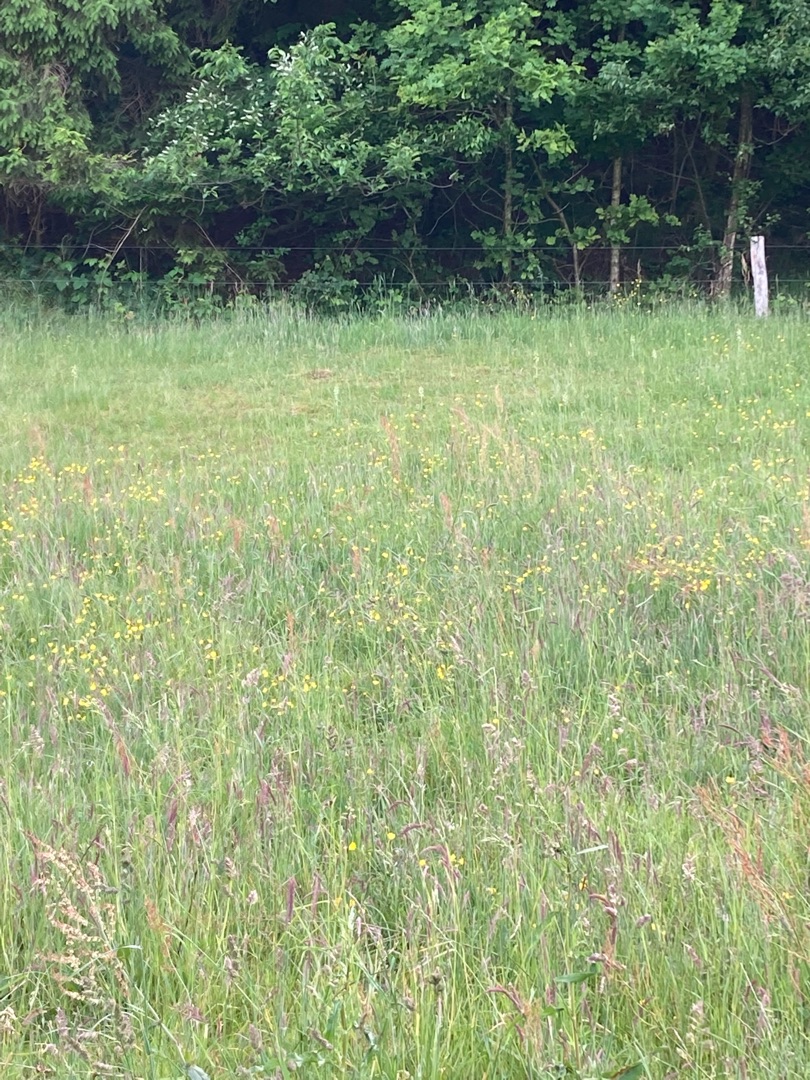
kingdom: Plantae
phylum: Tracheophyta
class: Liliopsida
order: Asparagales
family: Orchidaceae
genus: Platanthera
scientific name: Platanthera chlorantha
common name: Skov-gøgelilje
